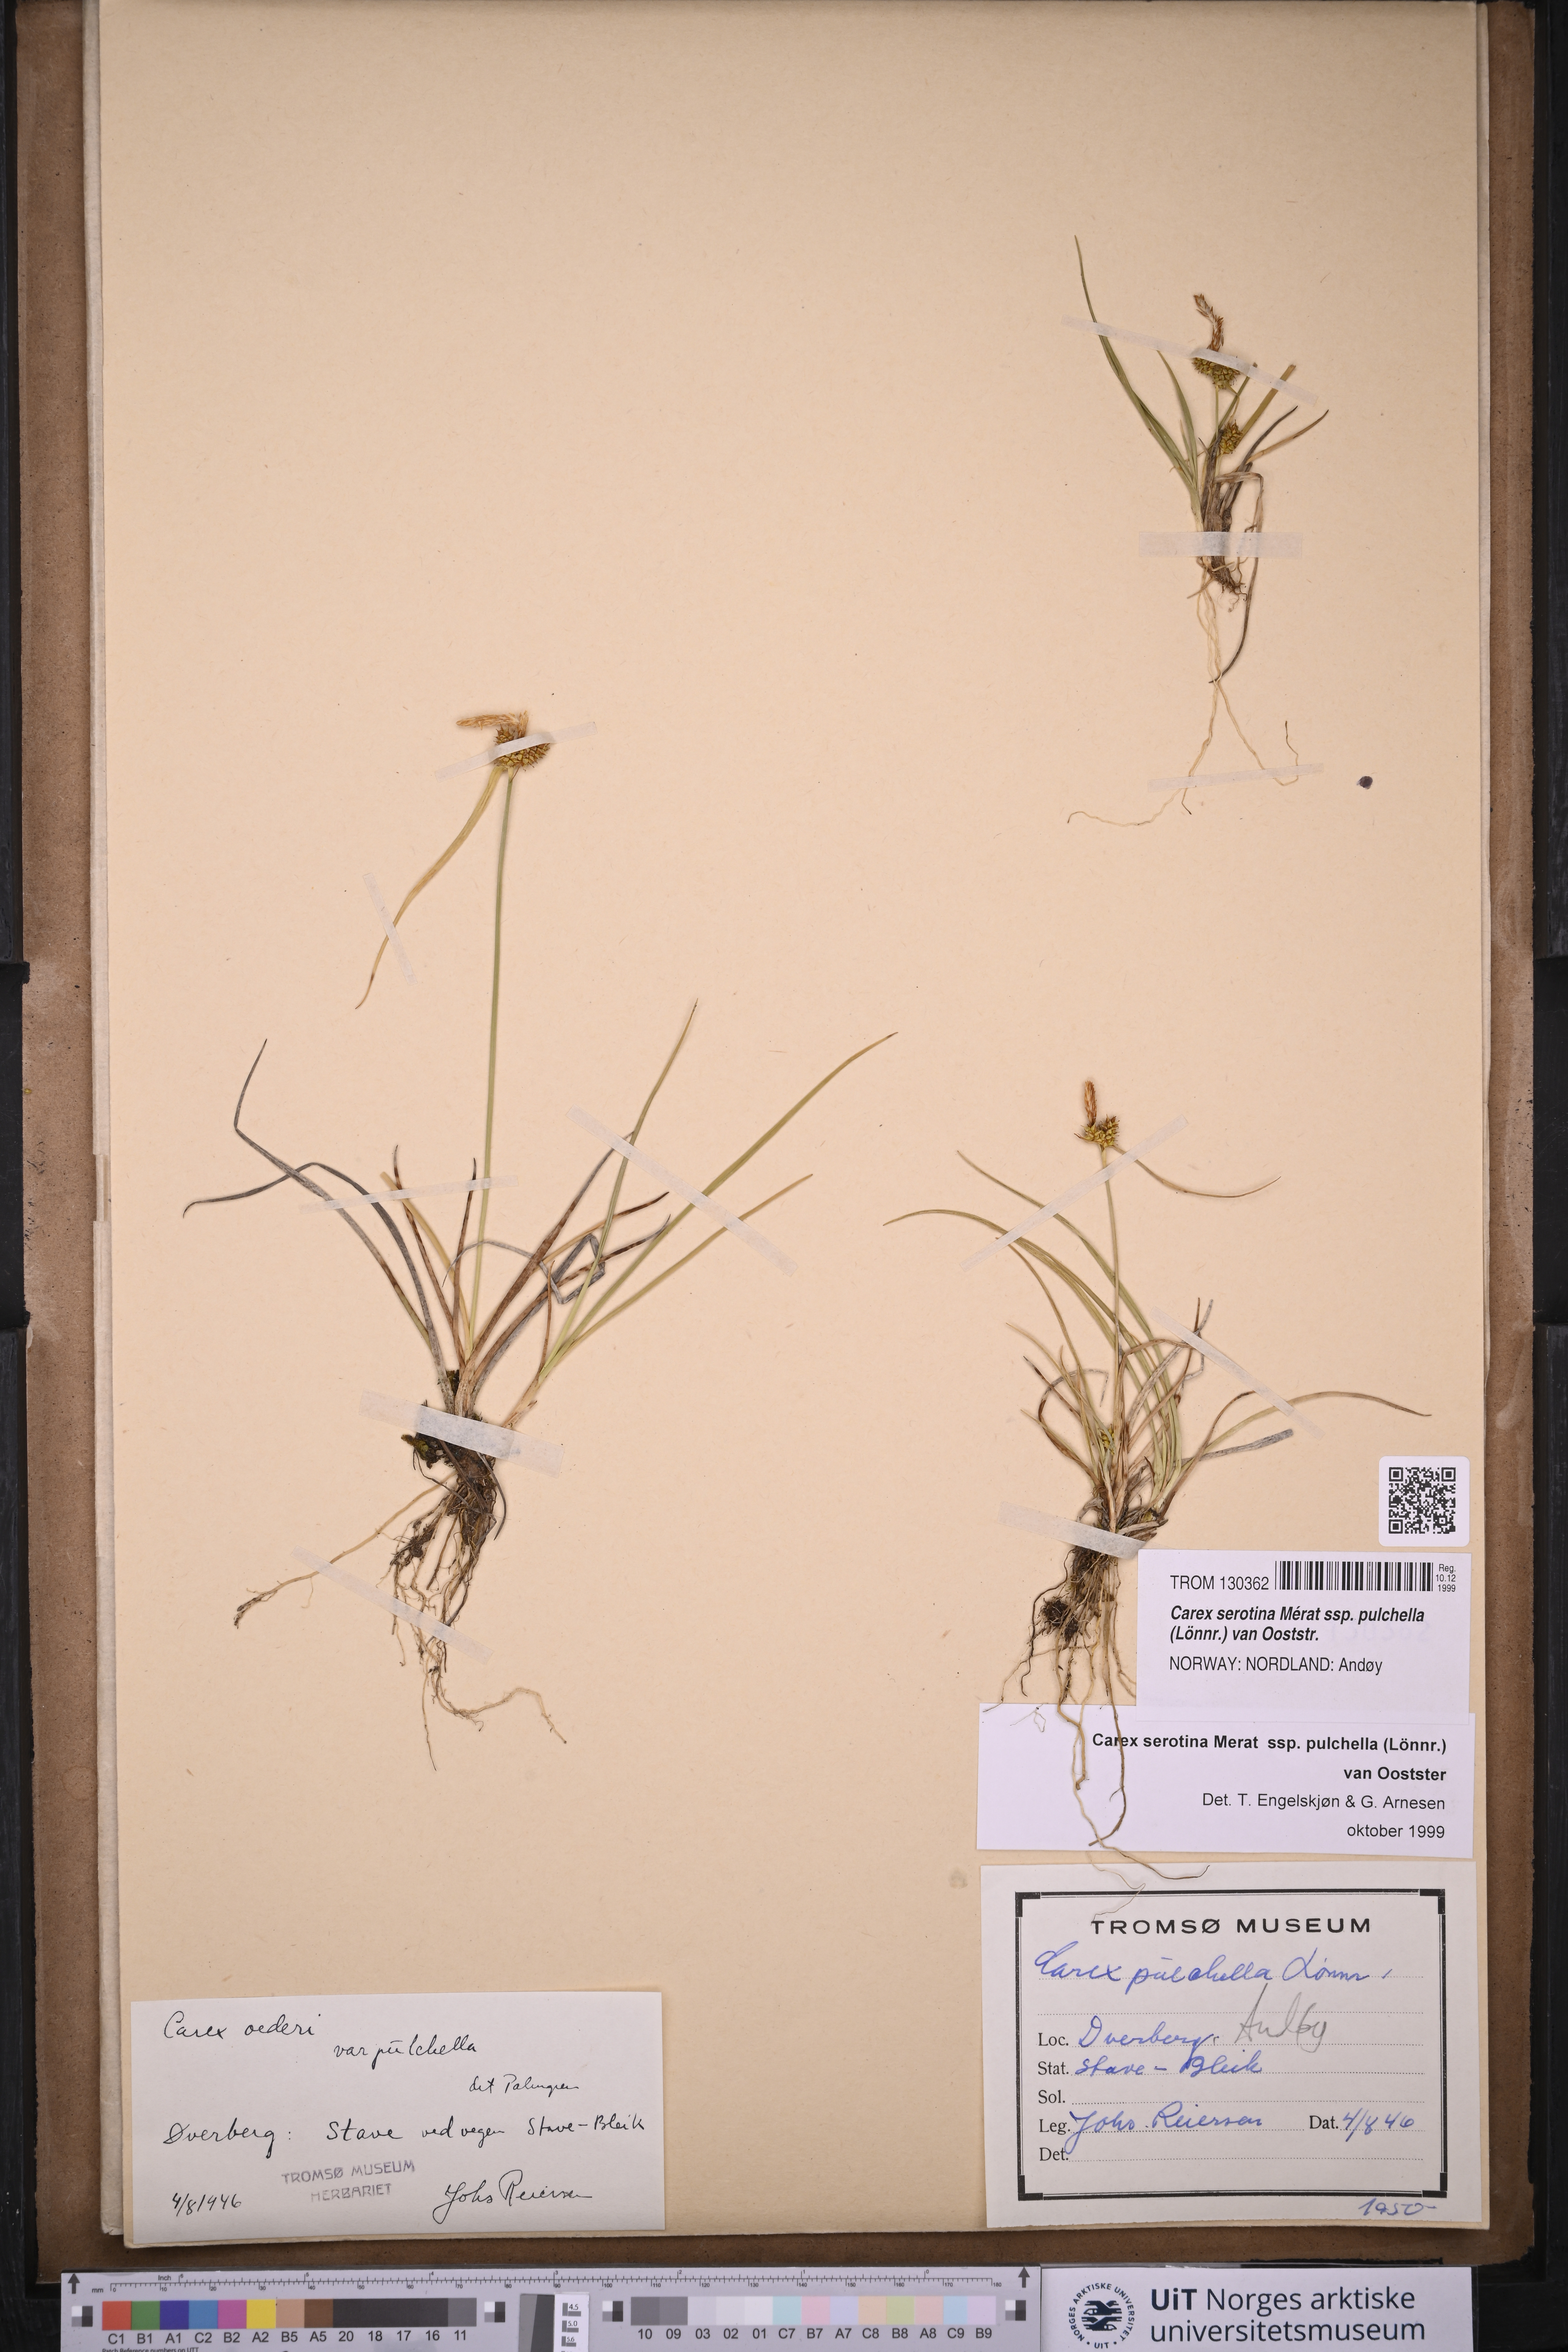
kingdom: Plantae
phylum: Tracheophyta
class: Liliopsida
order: Poales
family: Cyperaceae
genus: Carex
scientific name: Carex oederi
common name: Common & small-fruited yellow-sedge
